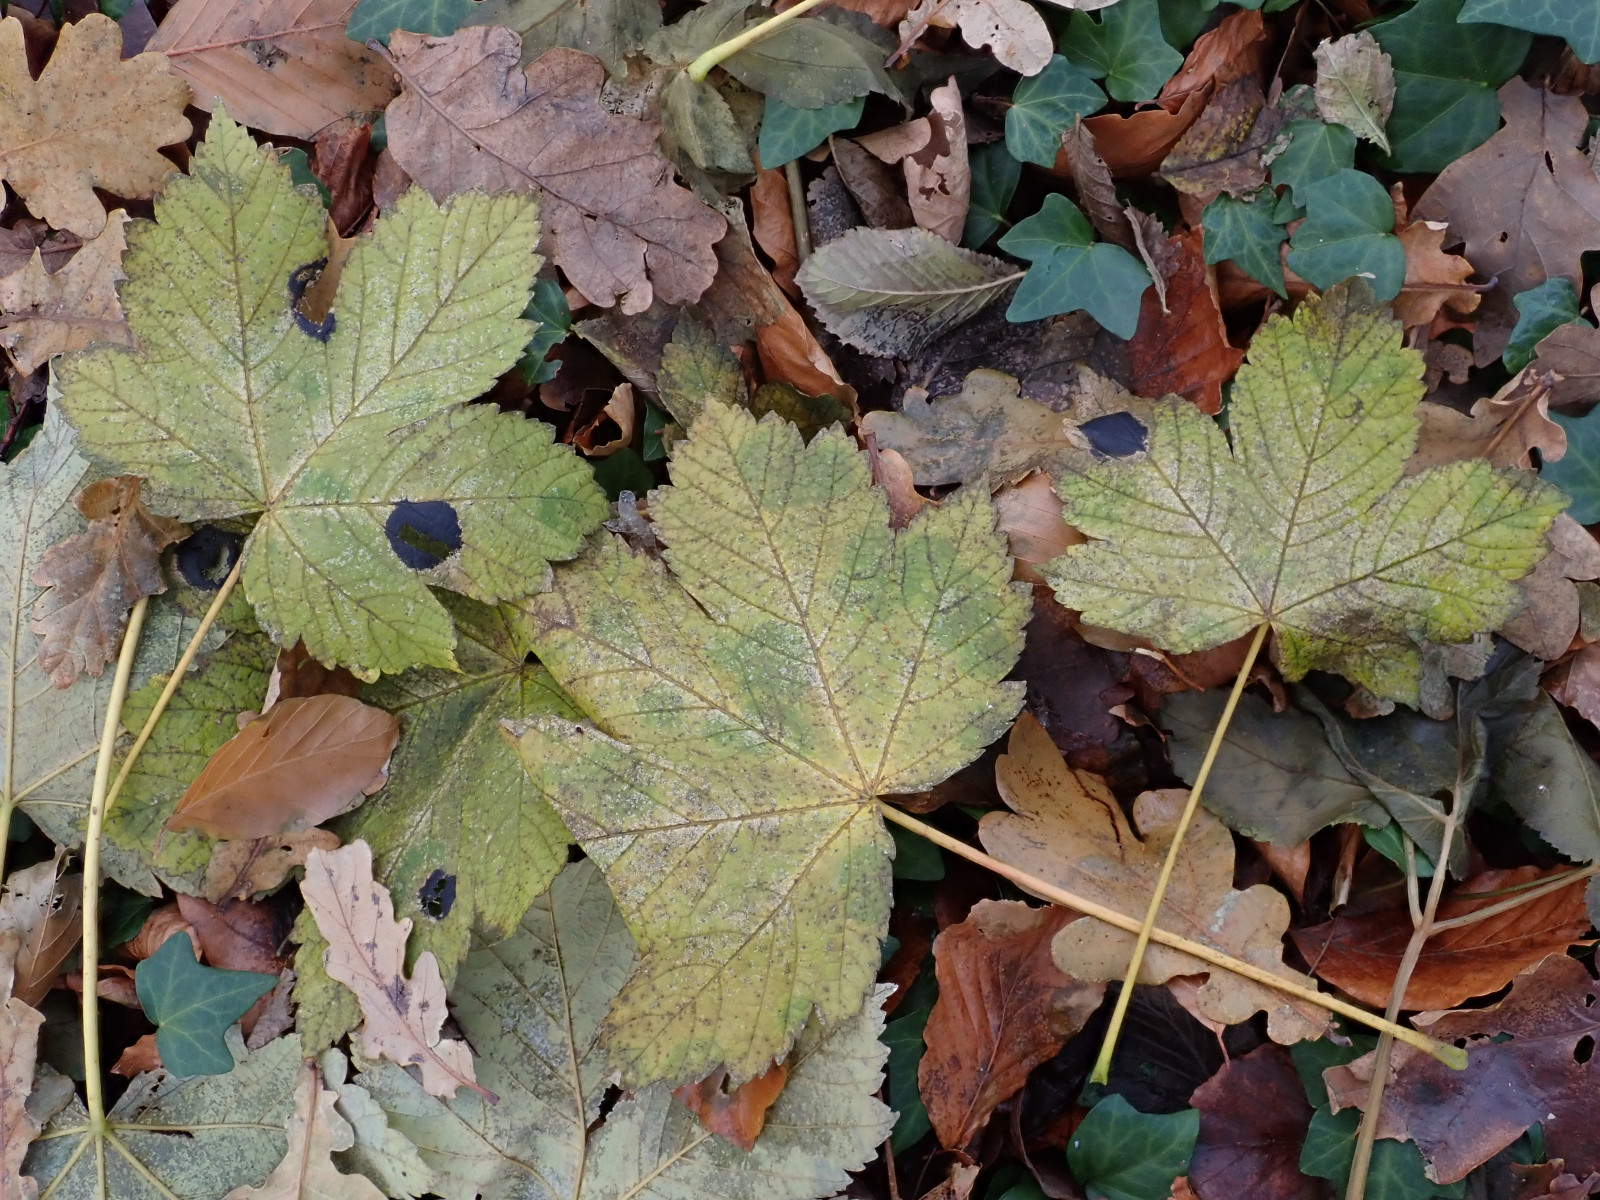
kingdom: Fungi
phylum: Ascomycota
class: Leotiomycetes
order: Rhytismatales
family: Rhytismataceae
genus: Rhytisma
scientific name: Rhytisma acerinum
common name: ahorn-rynkeplet
